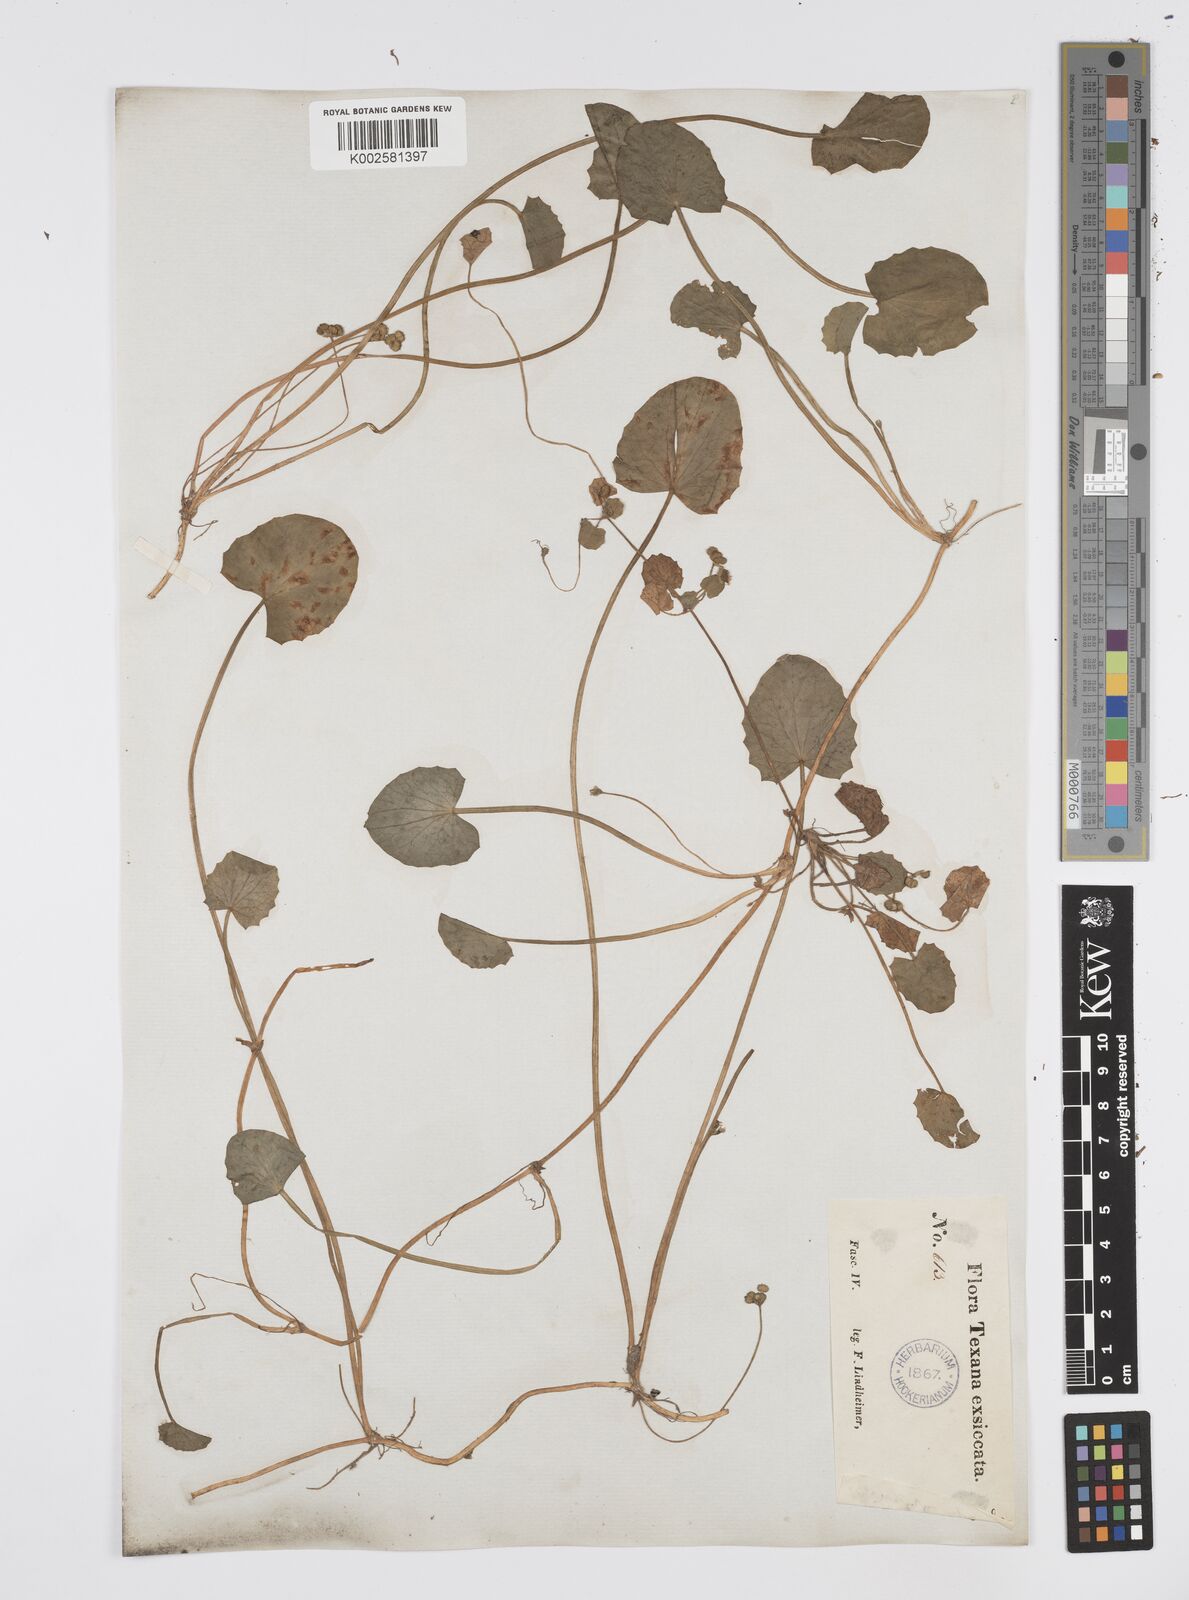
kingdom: Plantae
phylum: Tracheophyta
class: Magnoliopsida
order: Apiales
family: Apiaceae
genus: Centella
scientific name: Centella erecta
